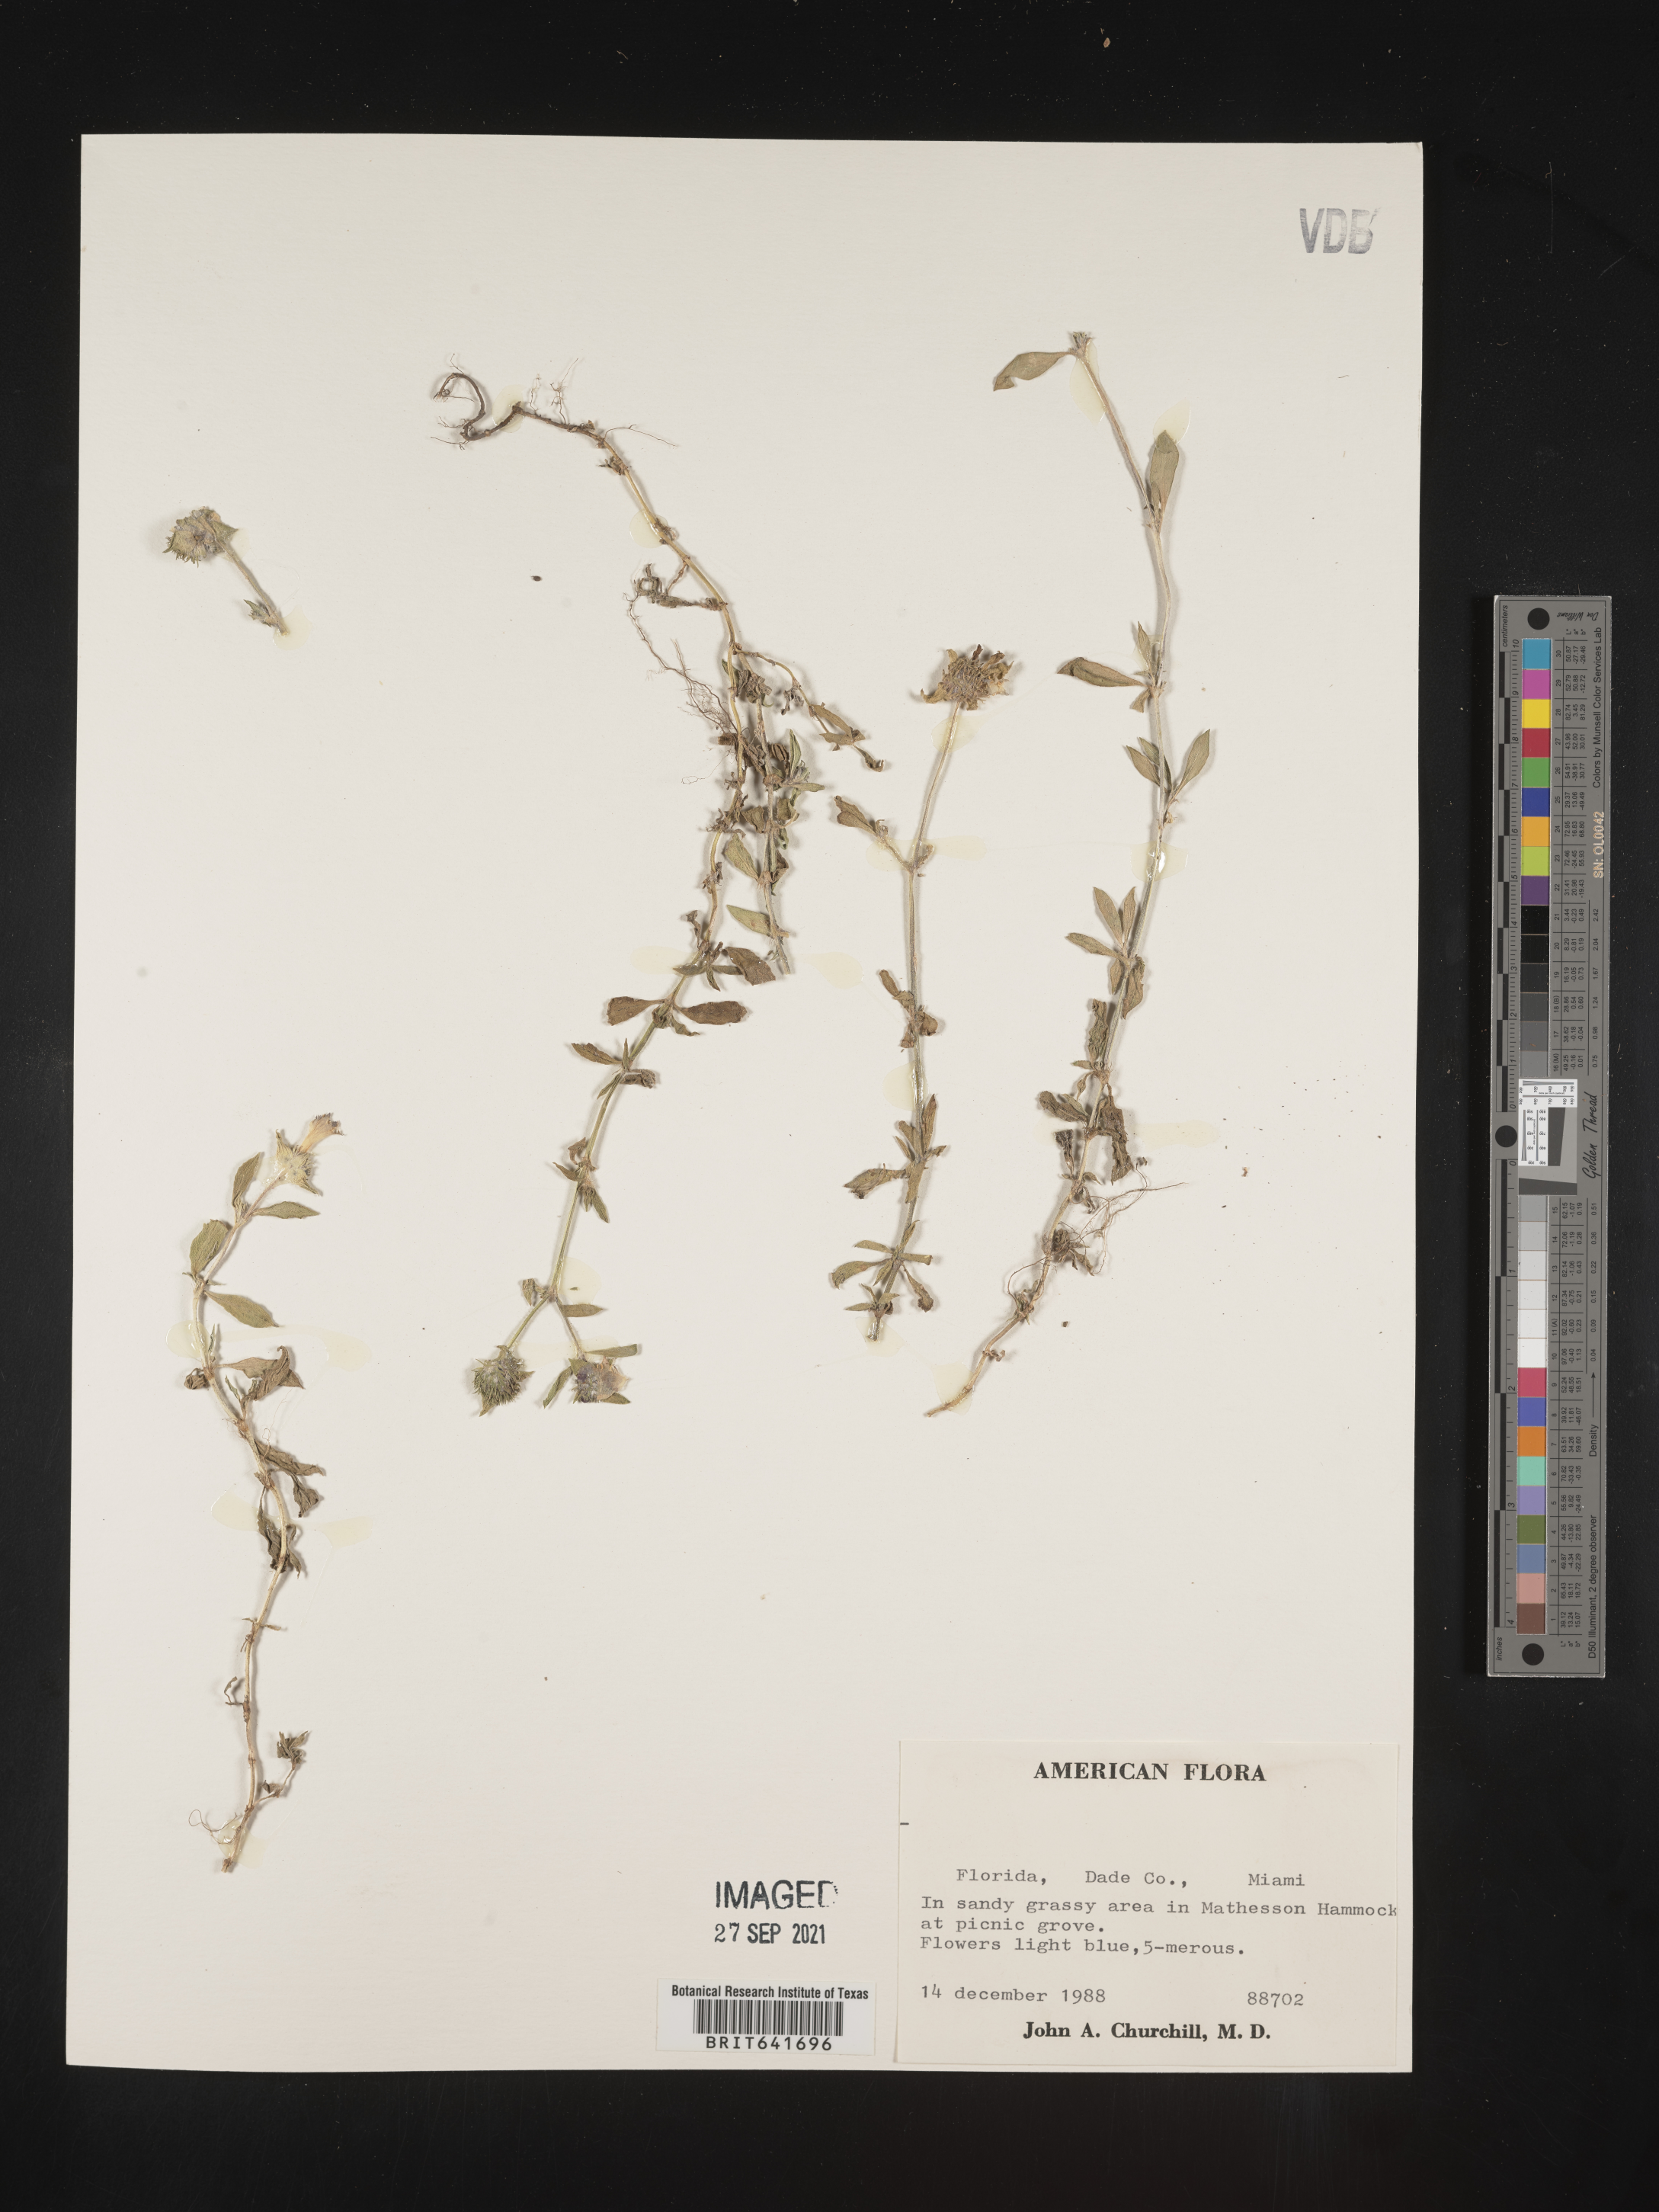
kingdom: Plantae
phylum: Tracheophyta
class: Magnoliopsida
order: Gentianales
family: Rubiaceae
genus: Spermacoce
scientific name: Spermacoce
